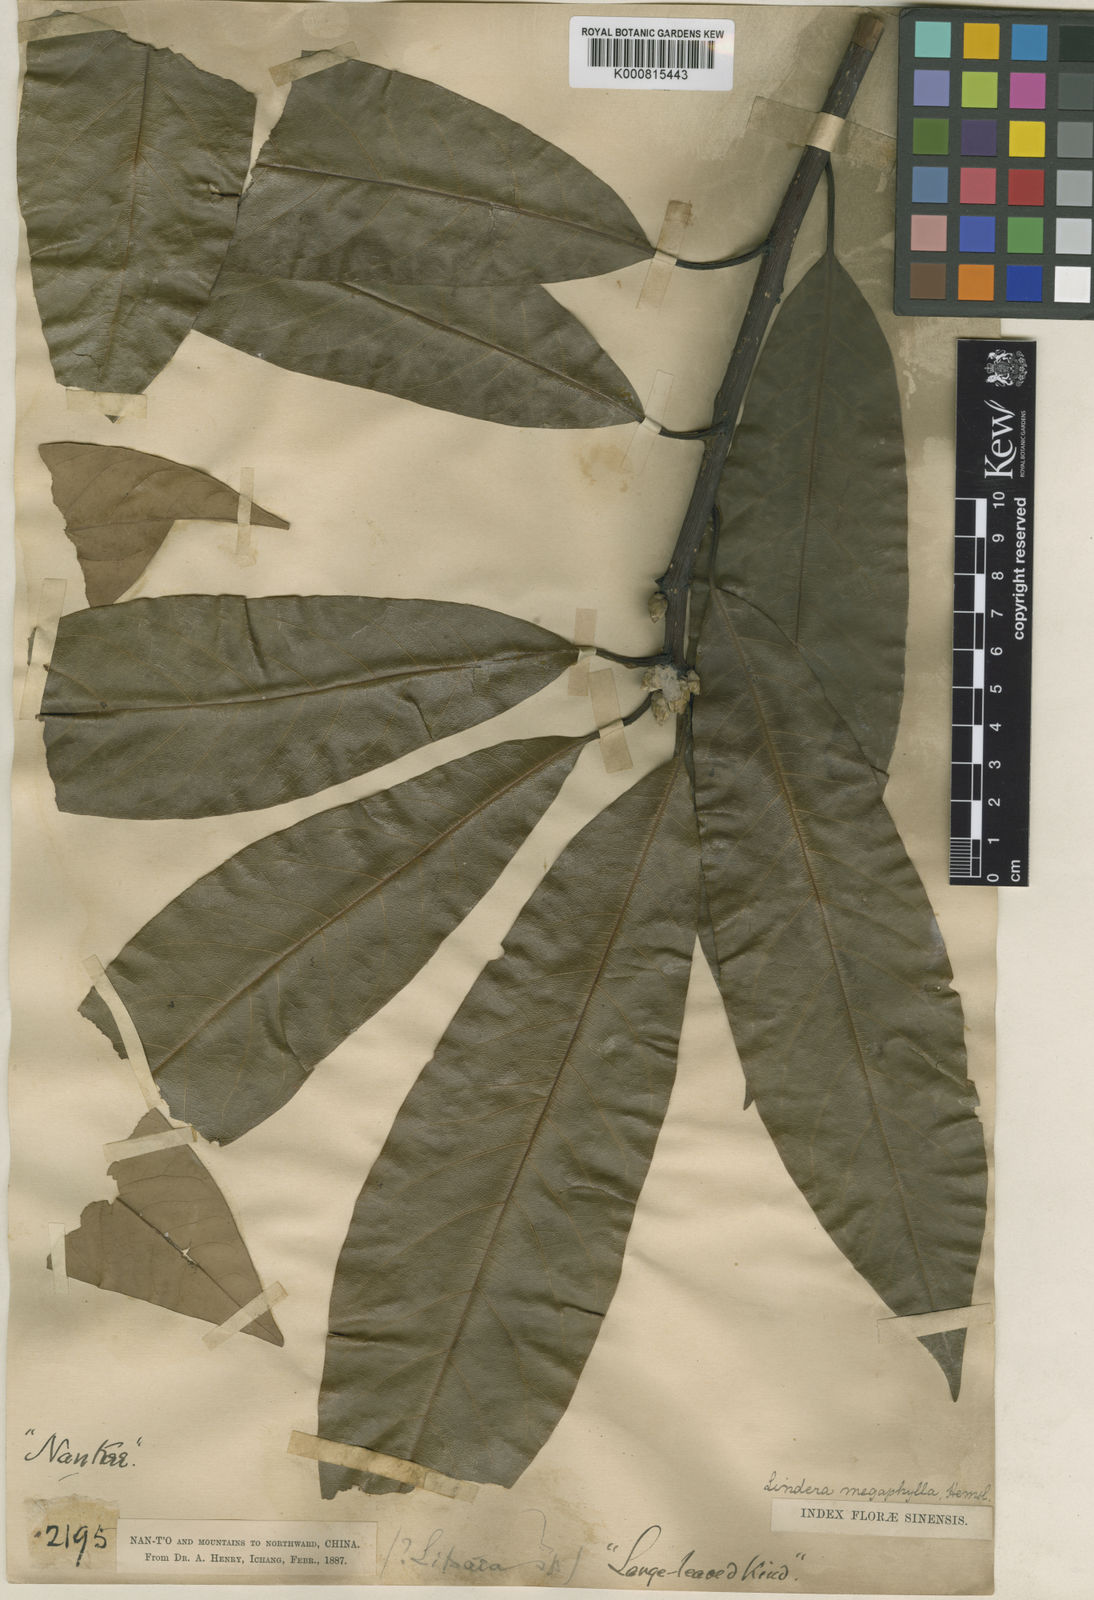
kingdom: Plantae
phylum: Tracheophyta
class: Magnoliopsida
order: Laurales
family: Lauraceae
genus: Lindera
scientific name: Lindera megaphylla
